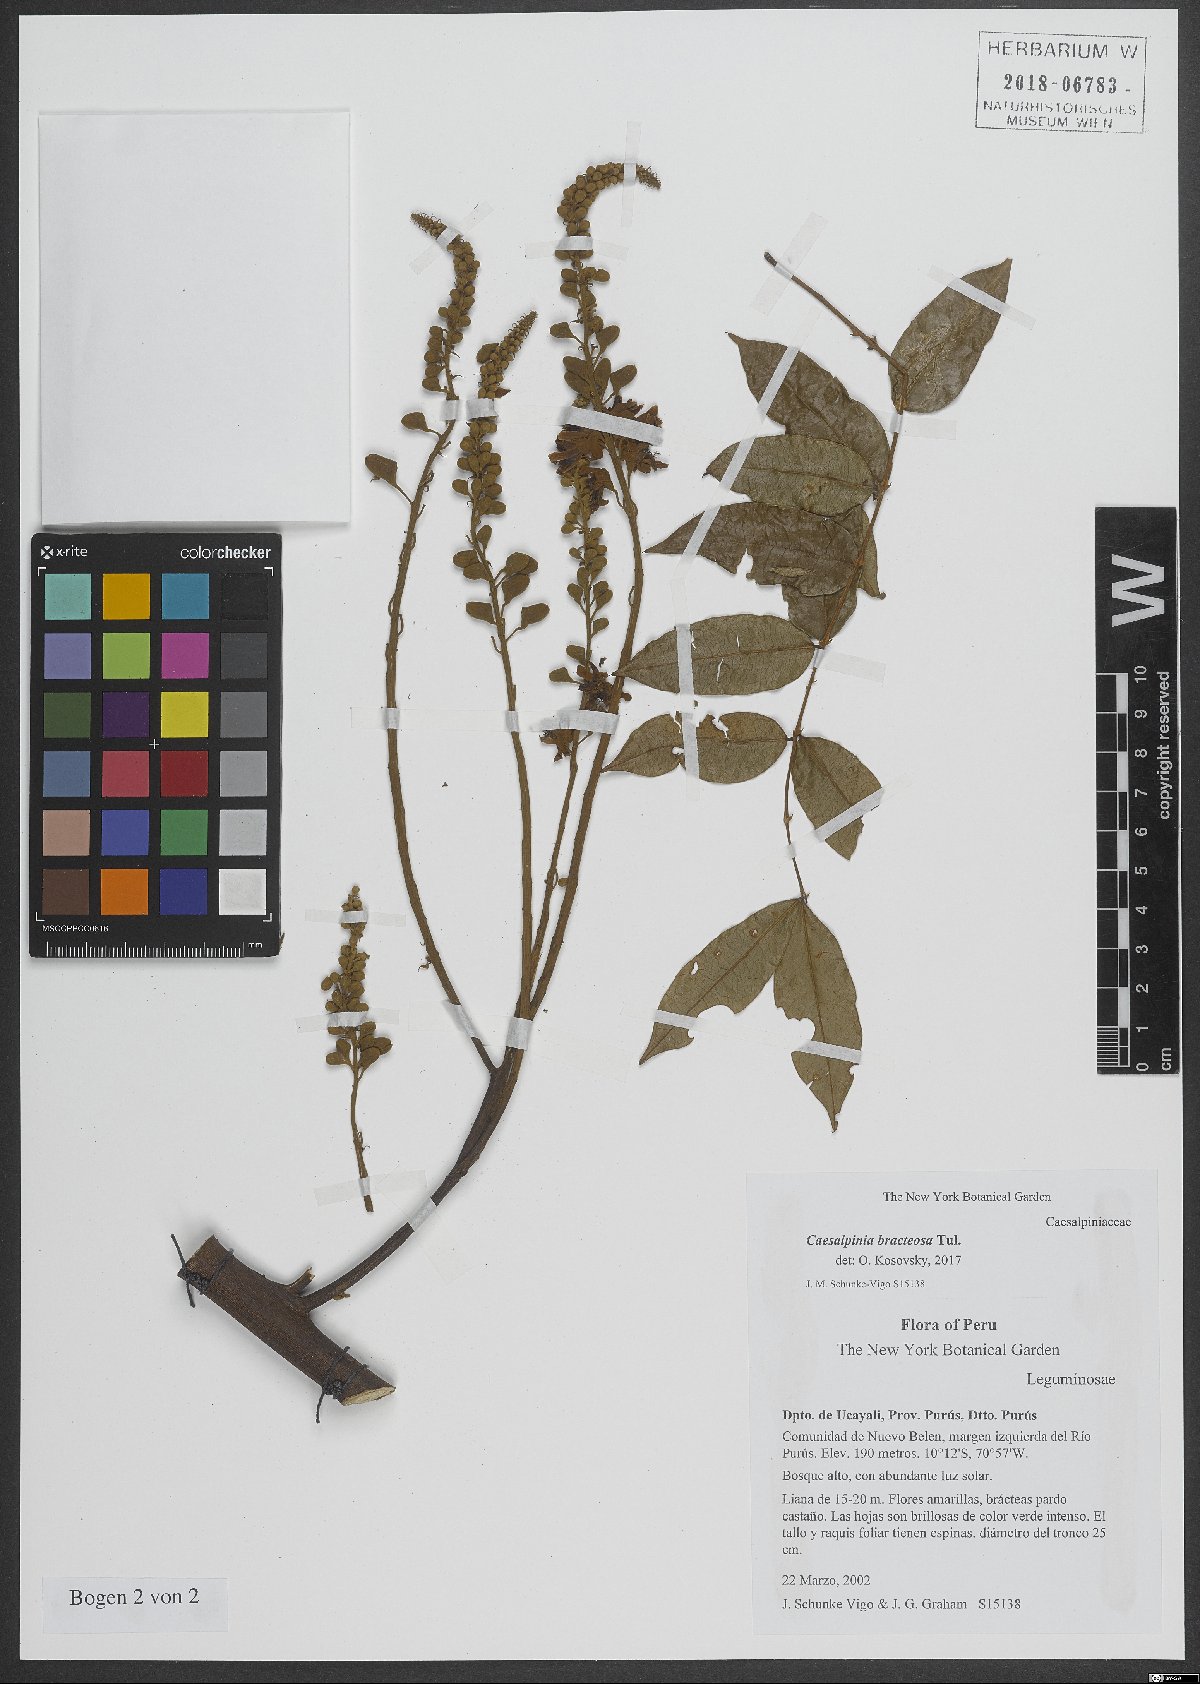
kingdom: Plantae
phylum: Tracheophyta
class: Magnoliopsida
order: Fabales
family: Fabaceae
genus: Cenostigma
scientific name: Cenostigma bracteosum
